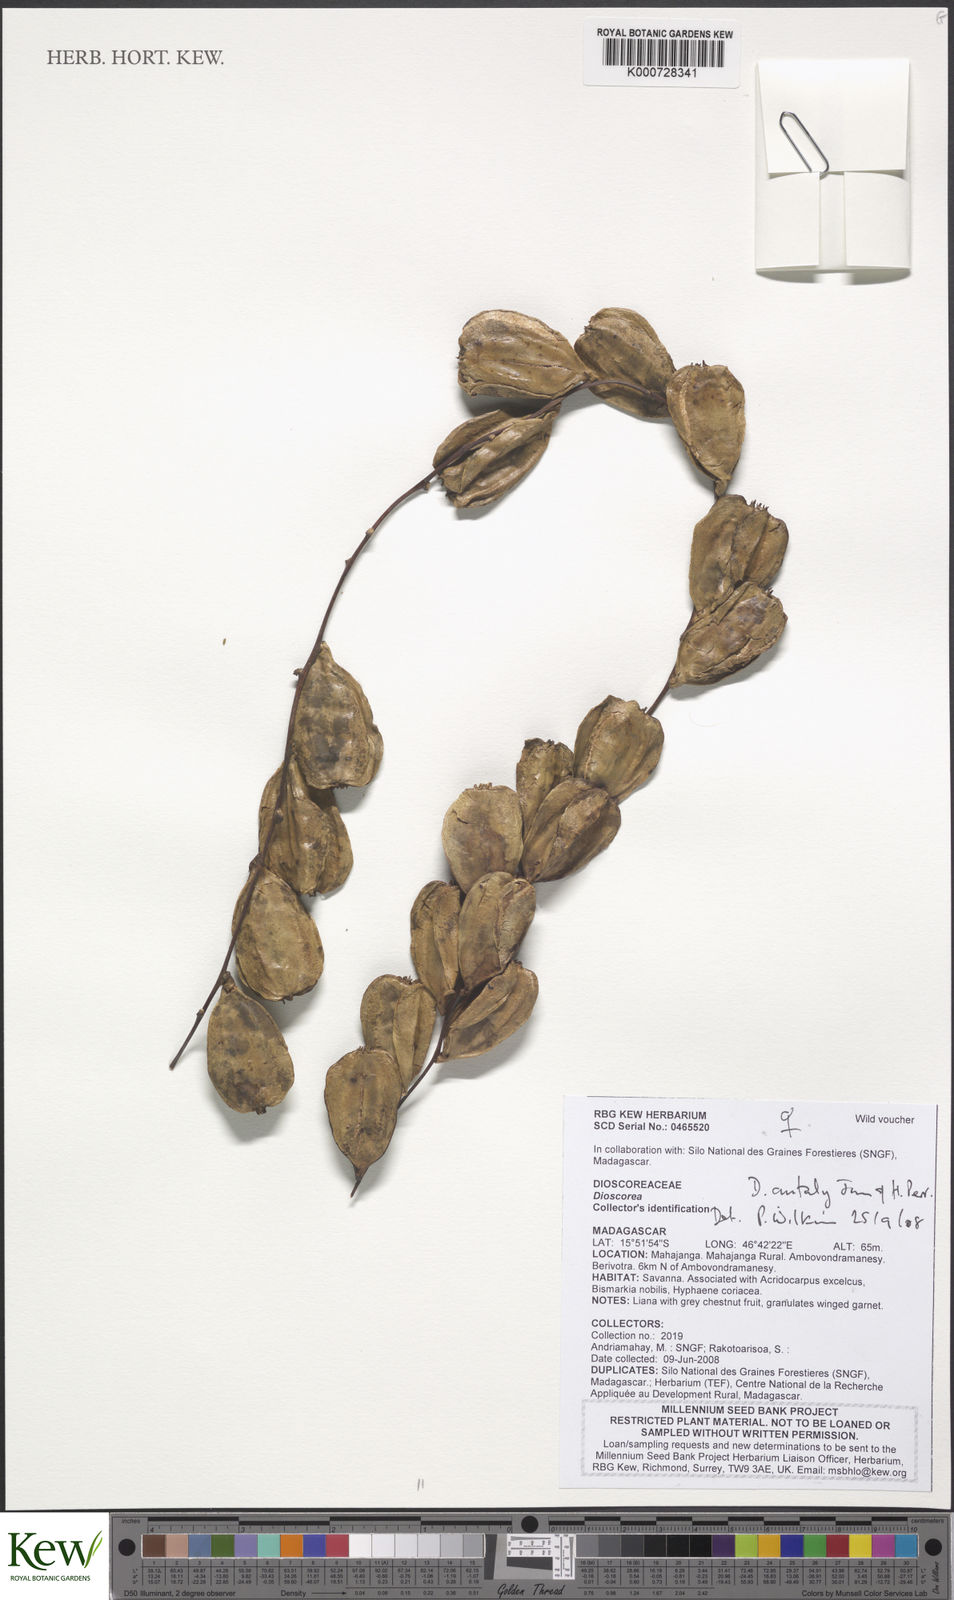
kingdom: Plantae
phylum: Tracheophyta
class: Liliopsida
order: Dioscoreales
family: Dioscoreaceae
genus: Dioscorea
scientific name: Dioscorea antaly
